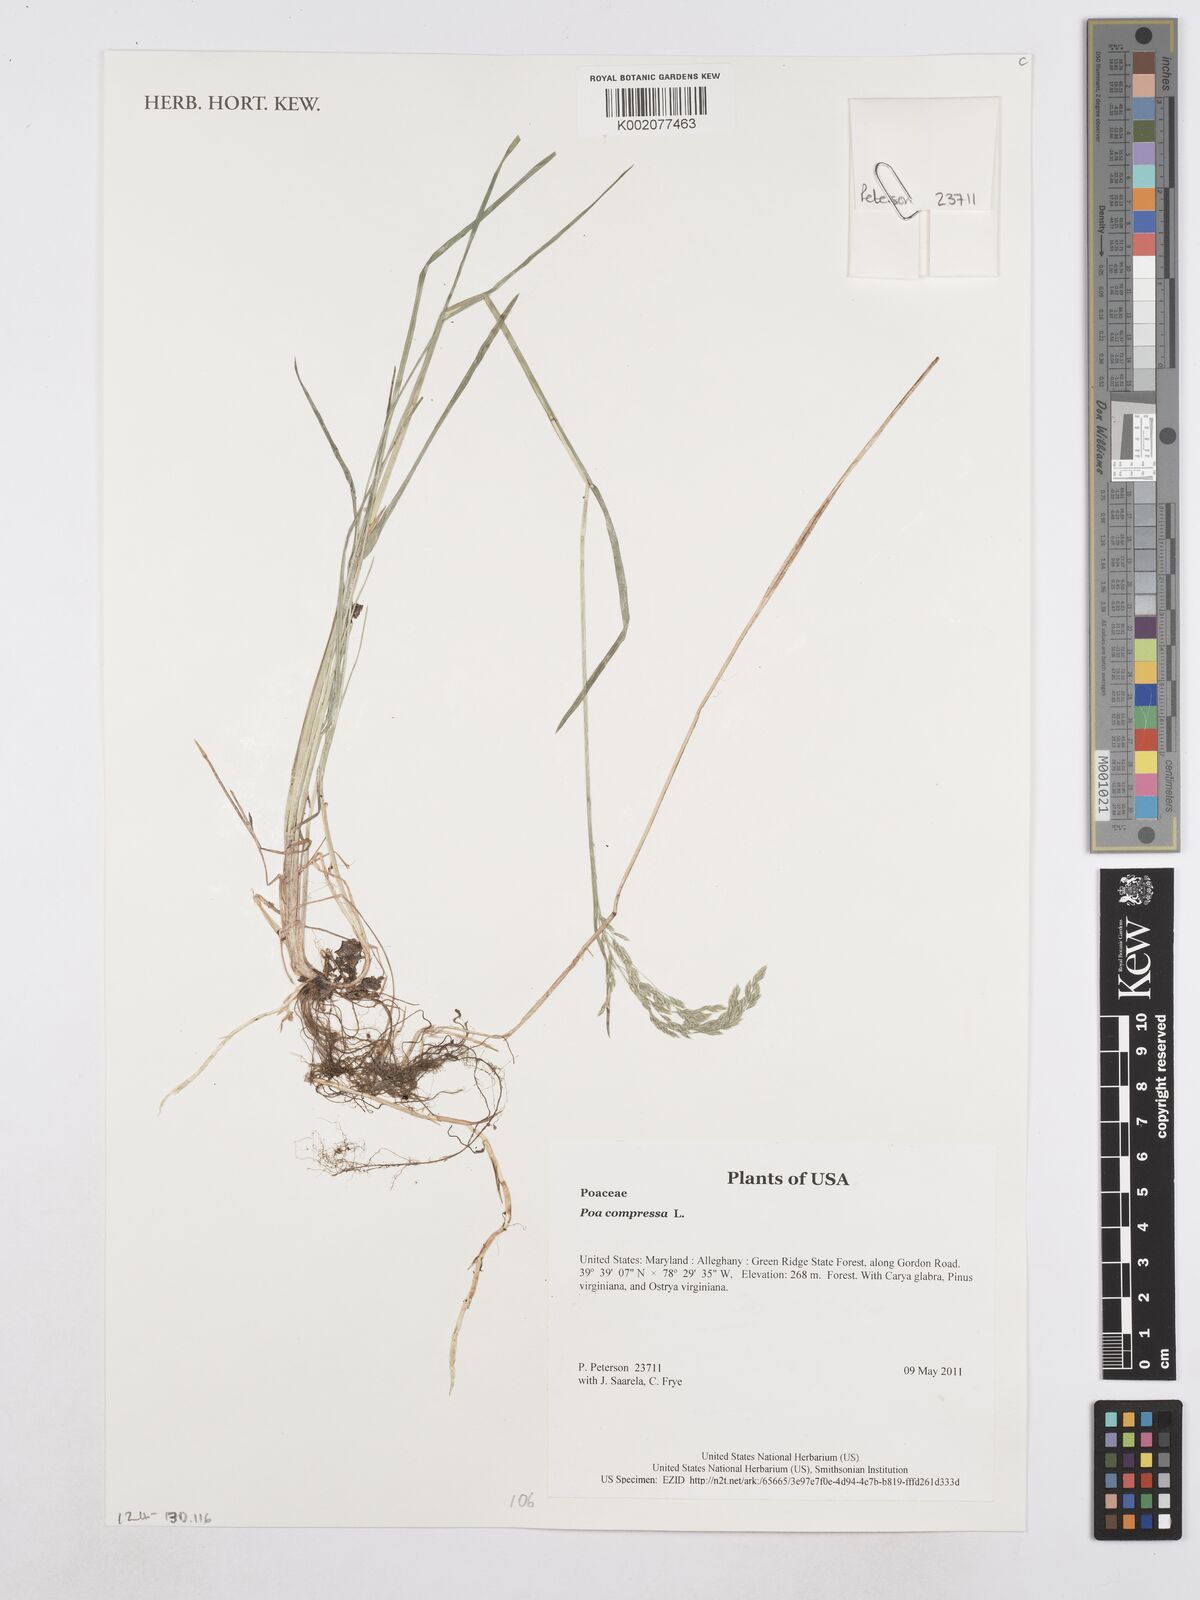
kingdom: Plantae
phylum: Tracheophyta
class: Liliopsida
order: Poales
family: Poaceae
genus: Poa
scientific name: Poa compressa
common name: Canada bluegrass
